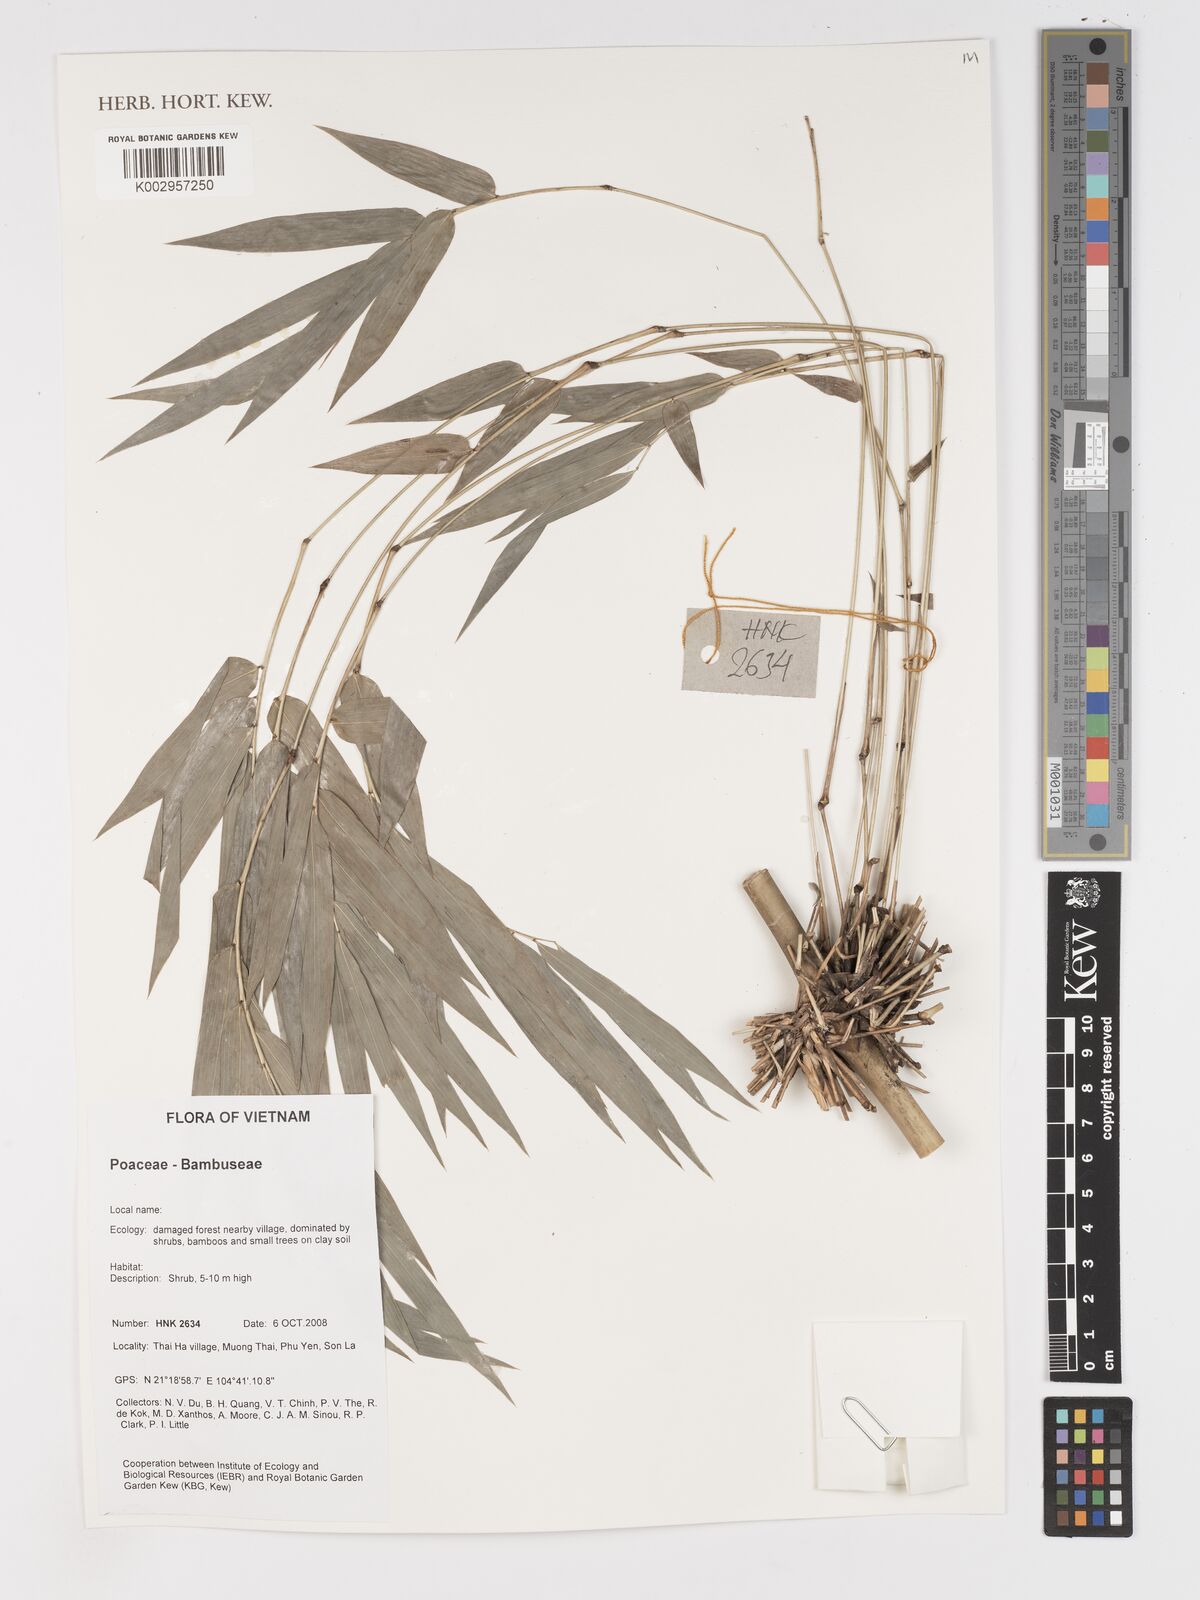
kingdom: Plantae
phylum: Tracheophyta
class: Liliopsida
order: Poales
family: Poaceae
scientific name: Poaceae
